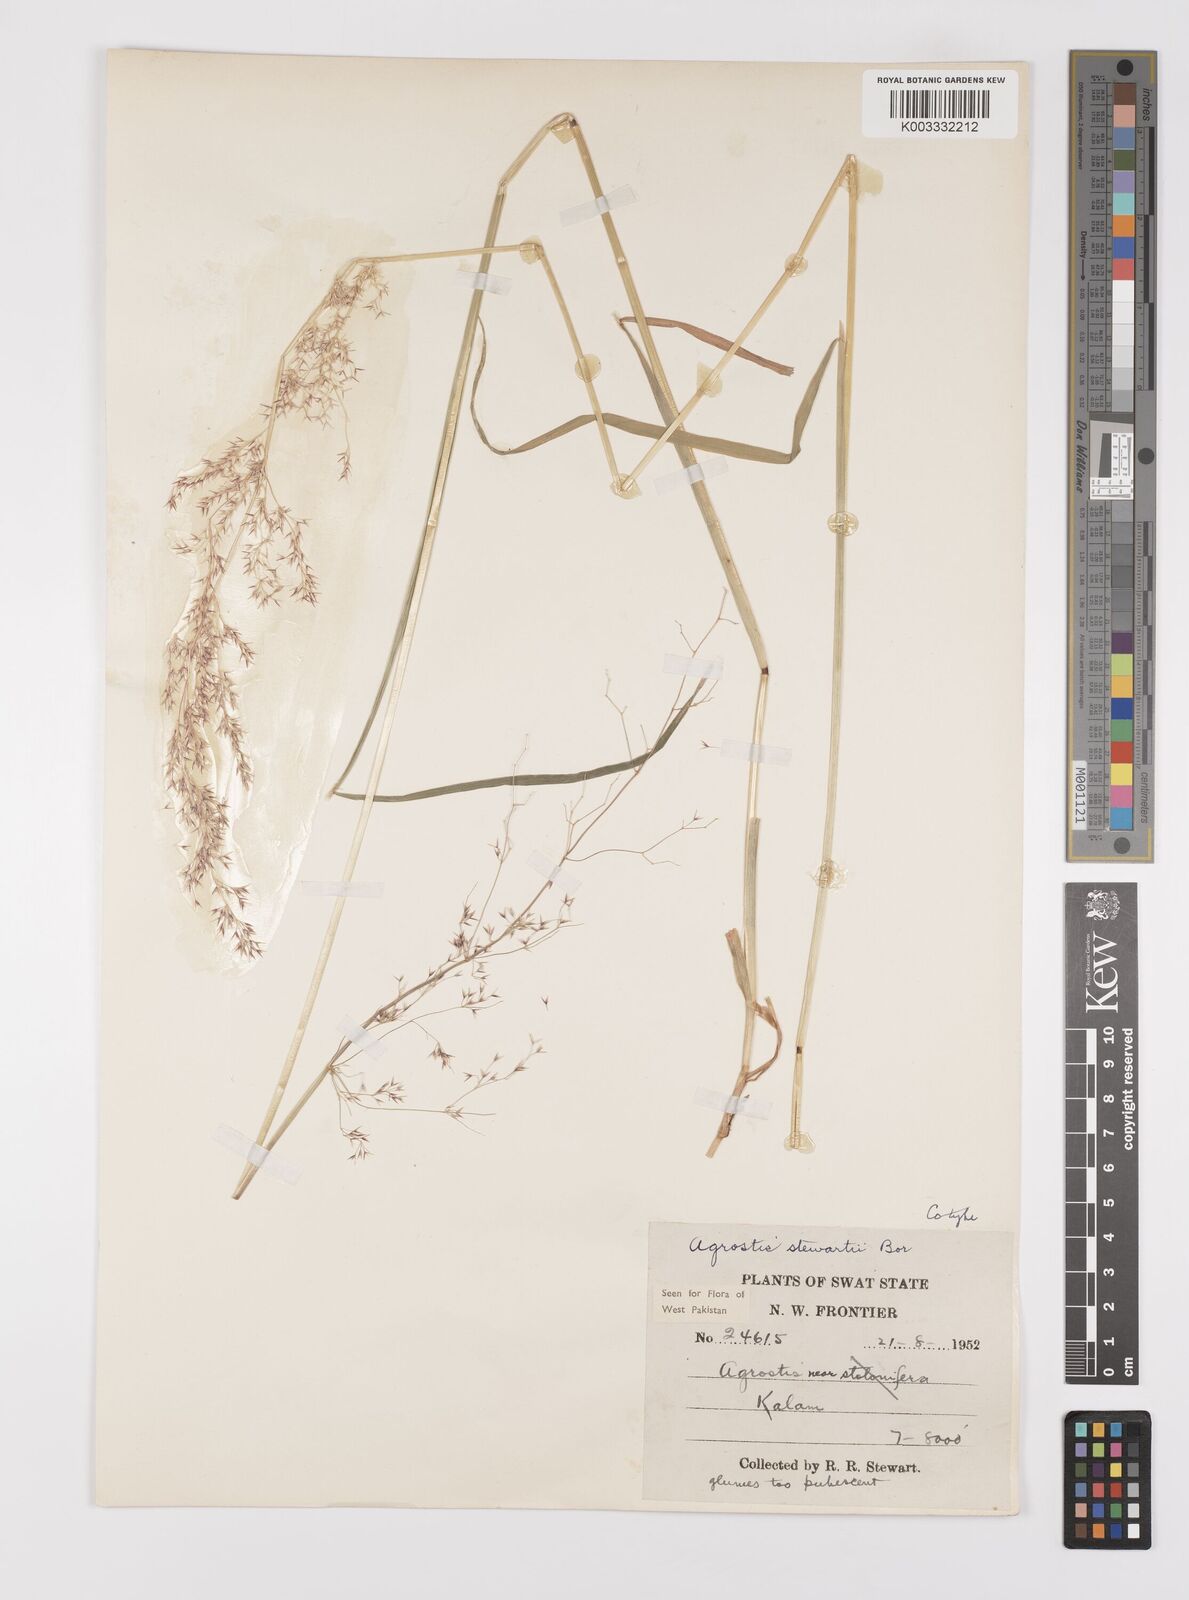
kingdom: Plantae
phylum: Tracheophyta
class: Liliopsida
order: Poales
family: Poaceae
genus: Polypogon
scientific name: Polypogon hissaricus
